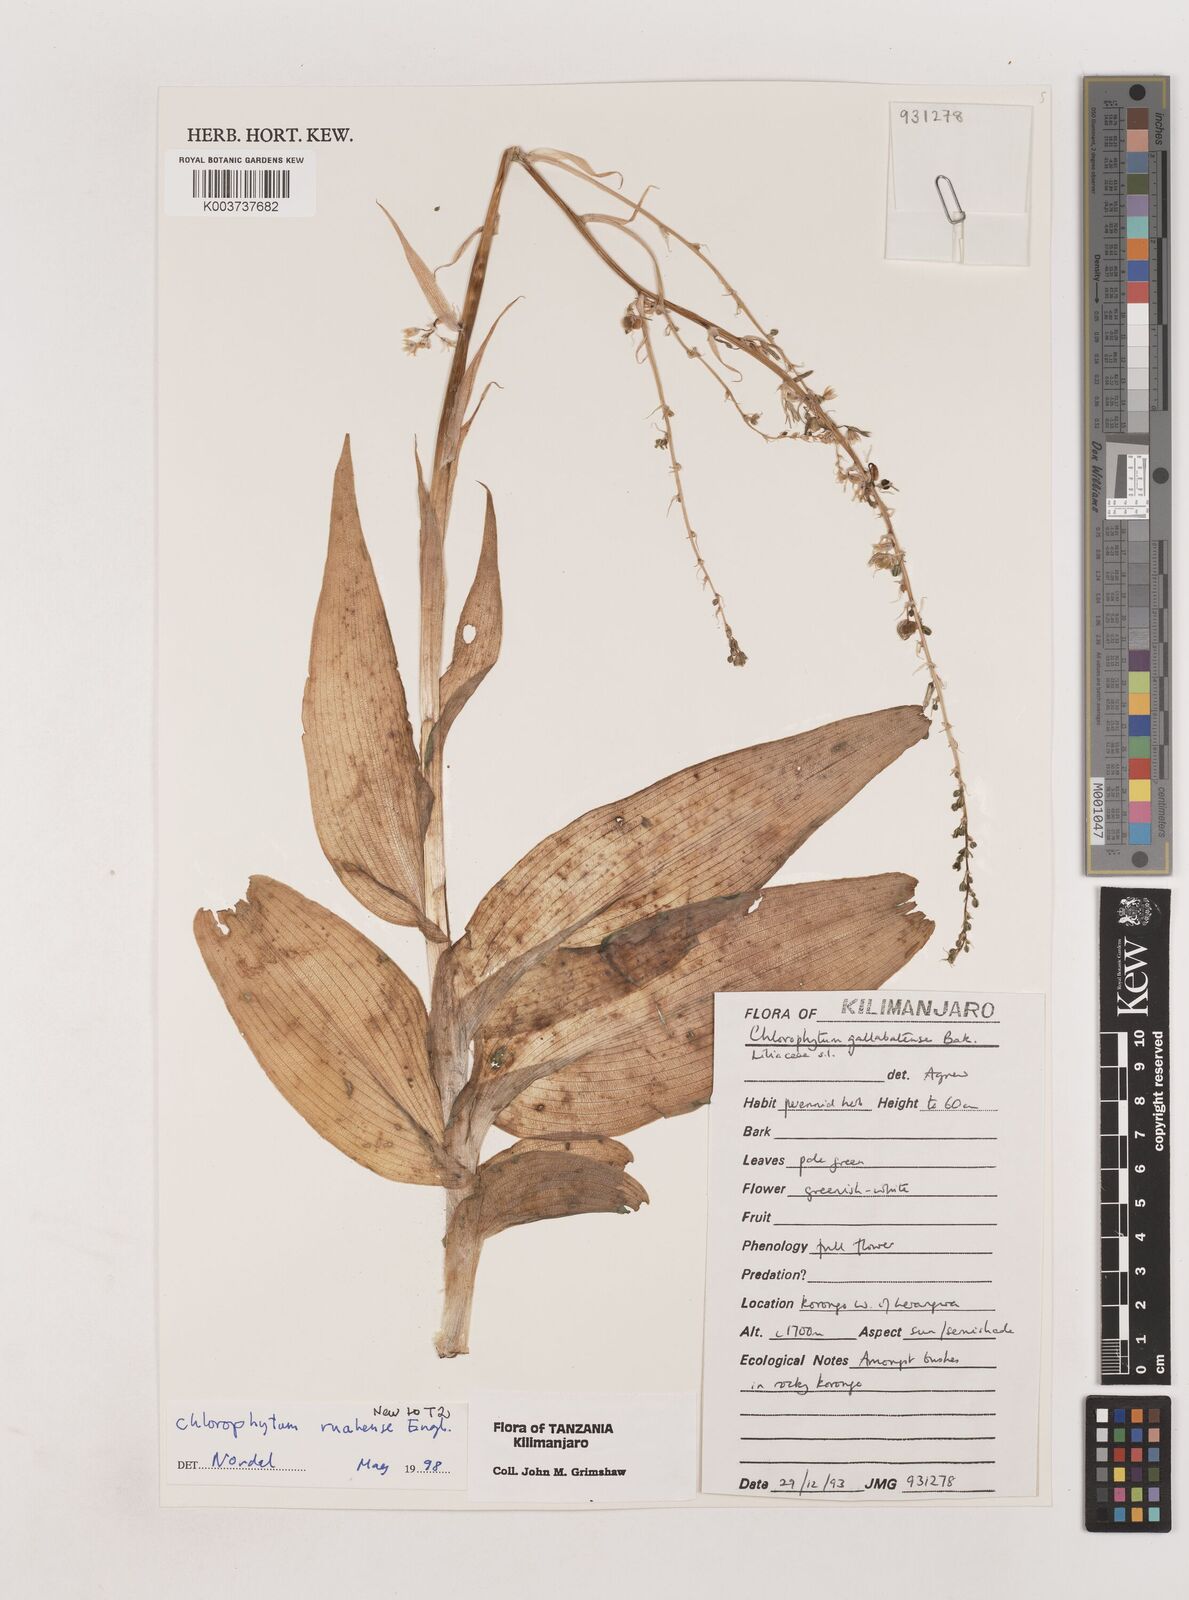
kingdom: Plantae
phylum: Tracheophyta
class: Liliopsida
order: Asparagales
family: Asparagaceae
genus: Chlorophytum
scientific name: Chlorophytum ruahense
